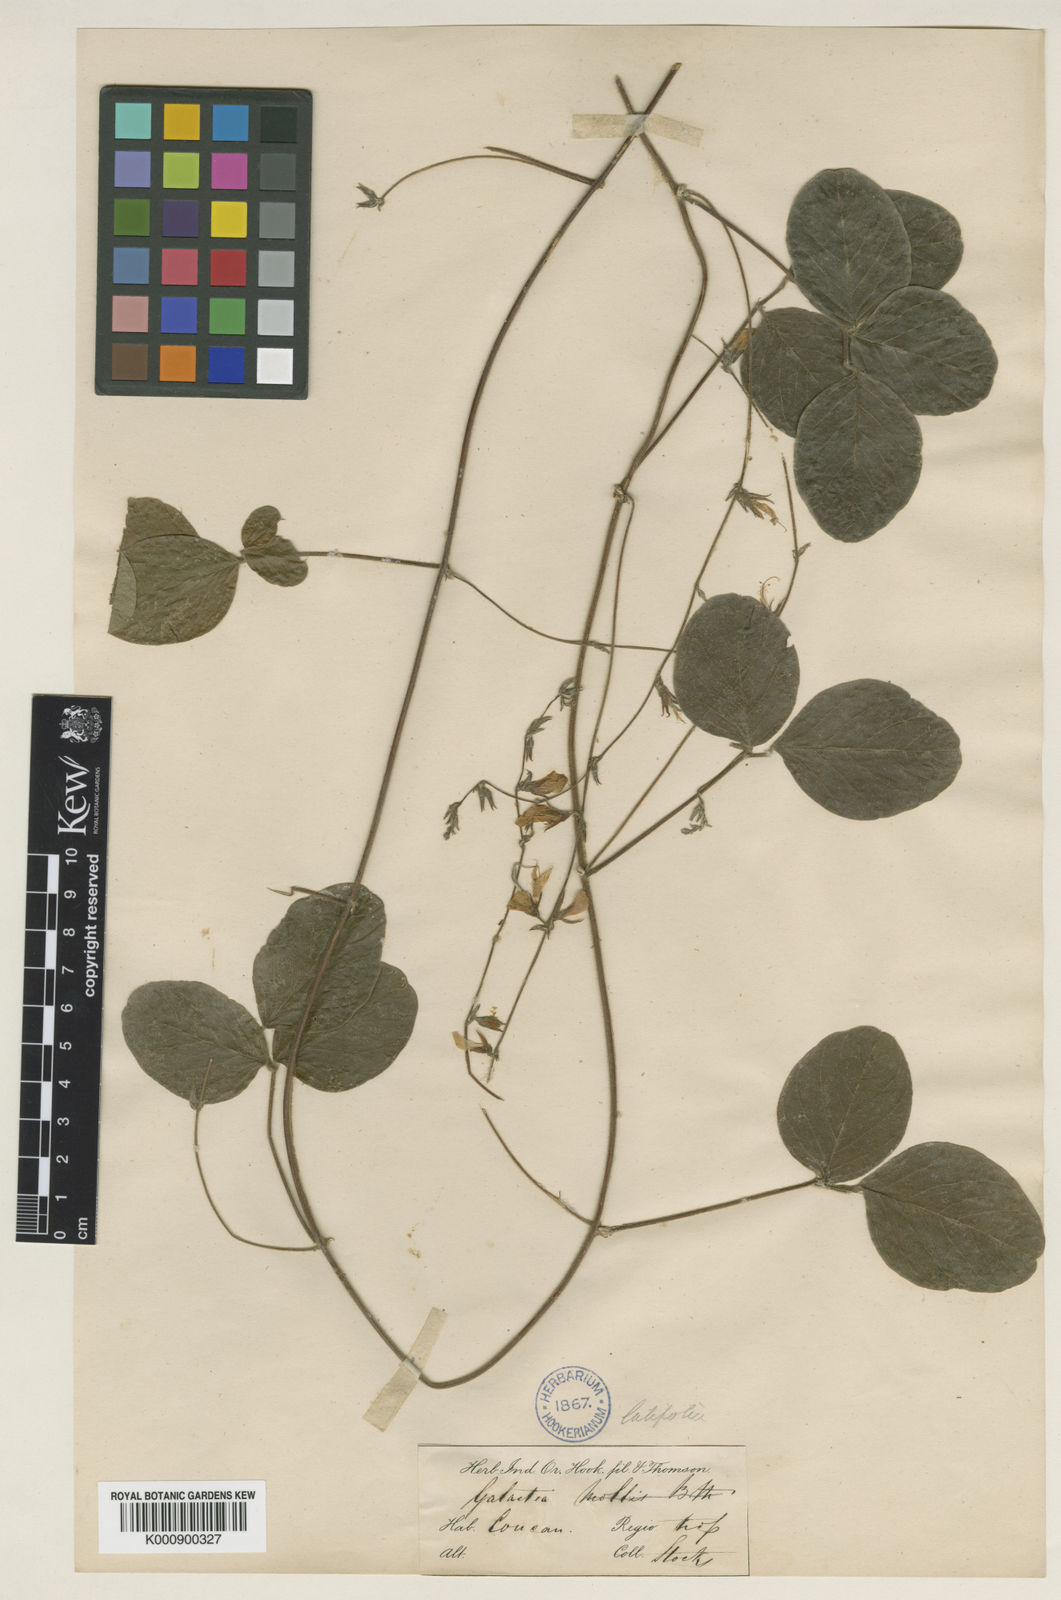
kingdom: Plantae
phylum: Tracheophyta
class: Magnoliopsida
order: Fabales
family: Fabaceae
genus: Galactia
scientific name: Galactia striata
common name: Florida hammock milkpea
